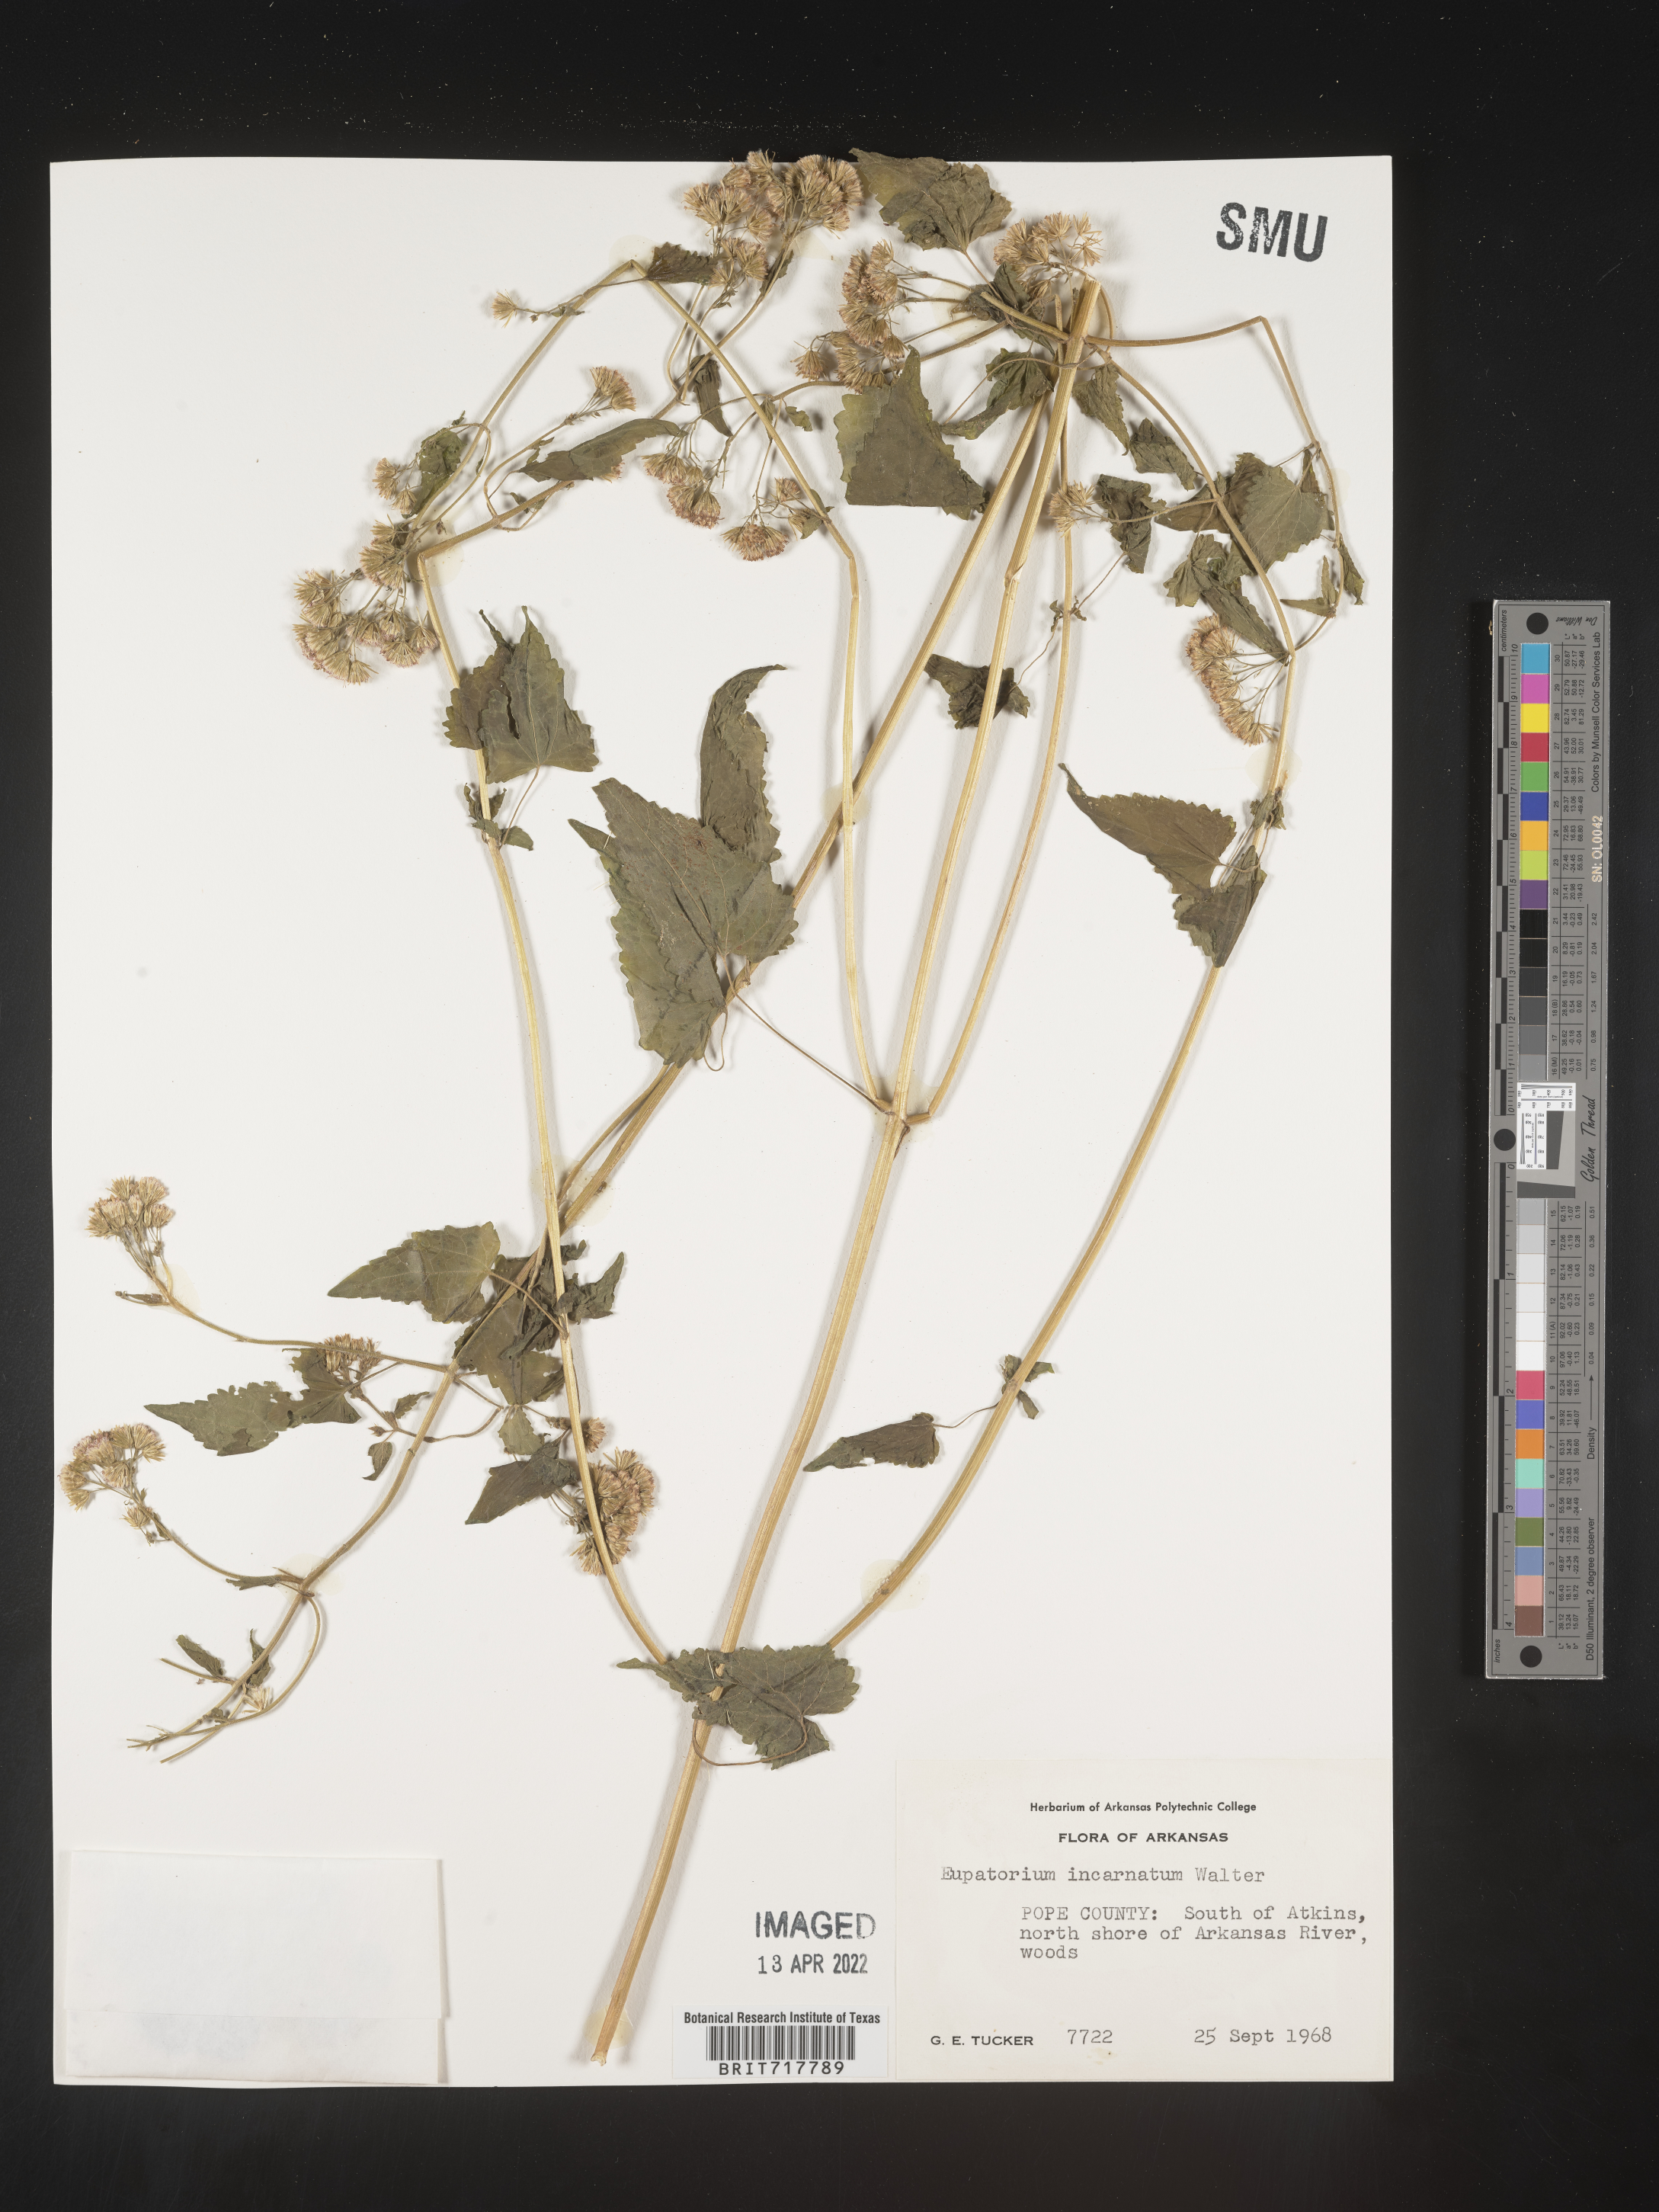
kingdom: Plantae
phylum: Tracheophyta
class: Magnoliopsida
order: Asterales
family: Asteraceae
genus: Fleischmannia
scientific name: Fleischmannia incarnata
